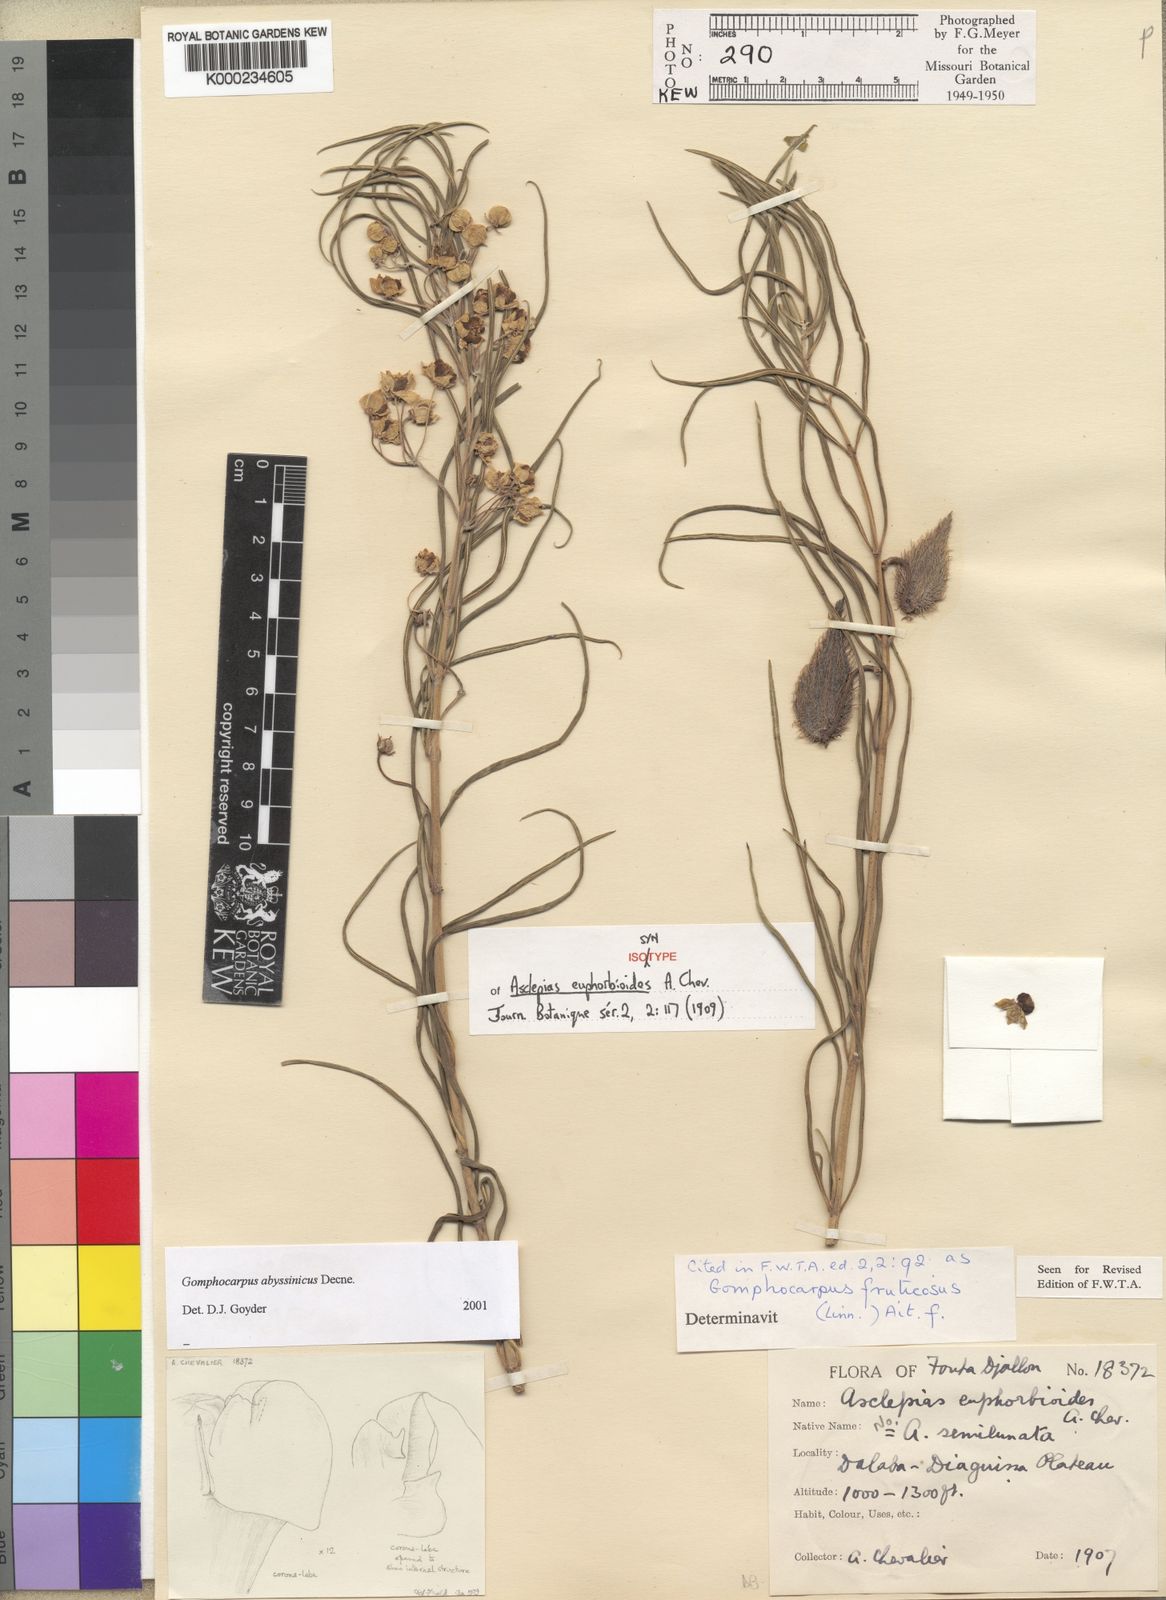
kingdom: Plantae
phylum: Tracheophyta
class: Magnoliopsida
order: Gentianales
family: Apocynaceae
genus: Gomphocarpus
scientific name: Gomphocarpus abyssinicus
